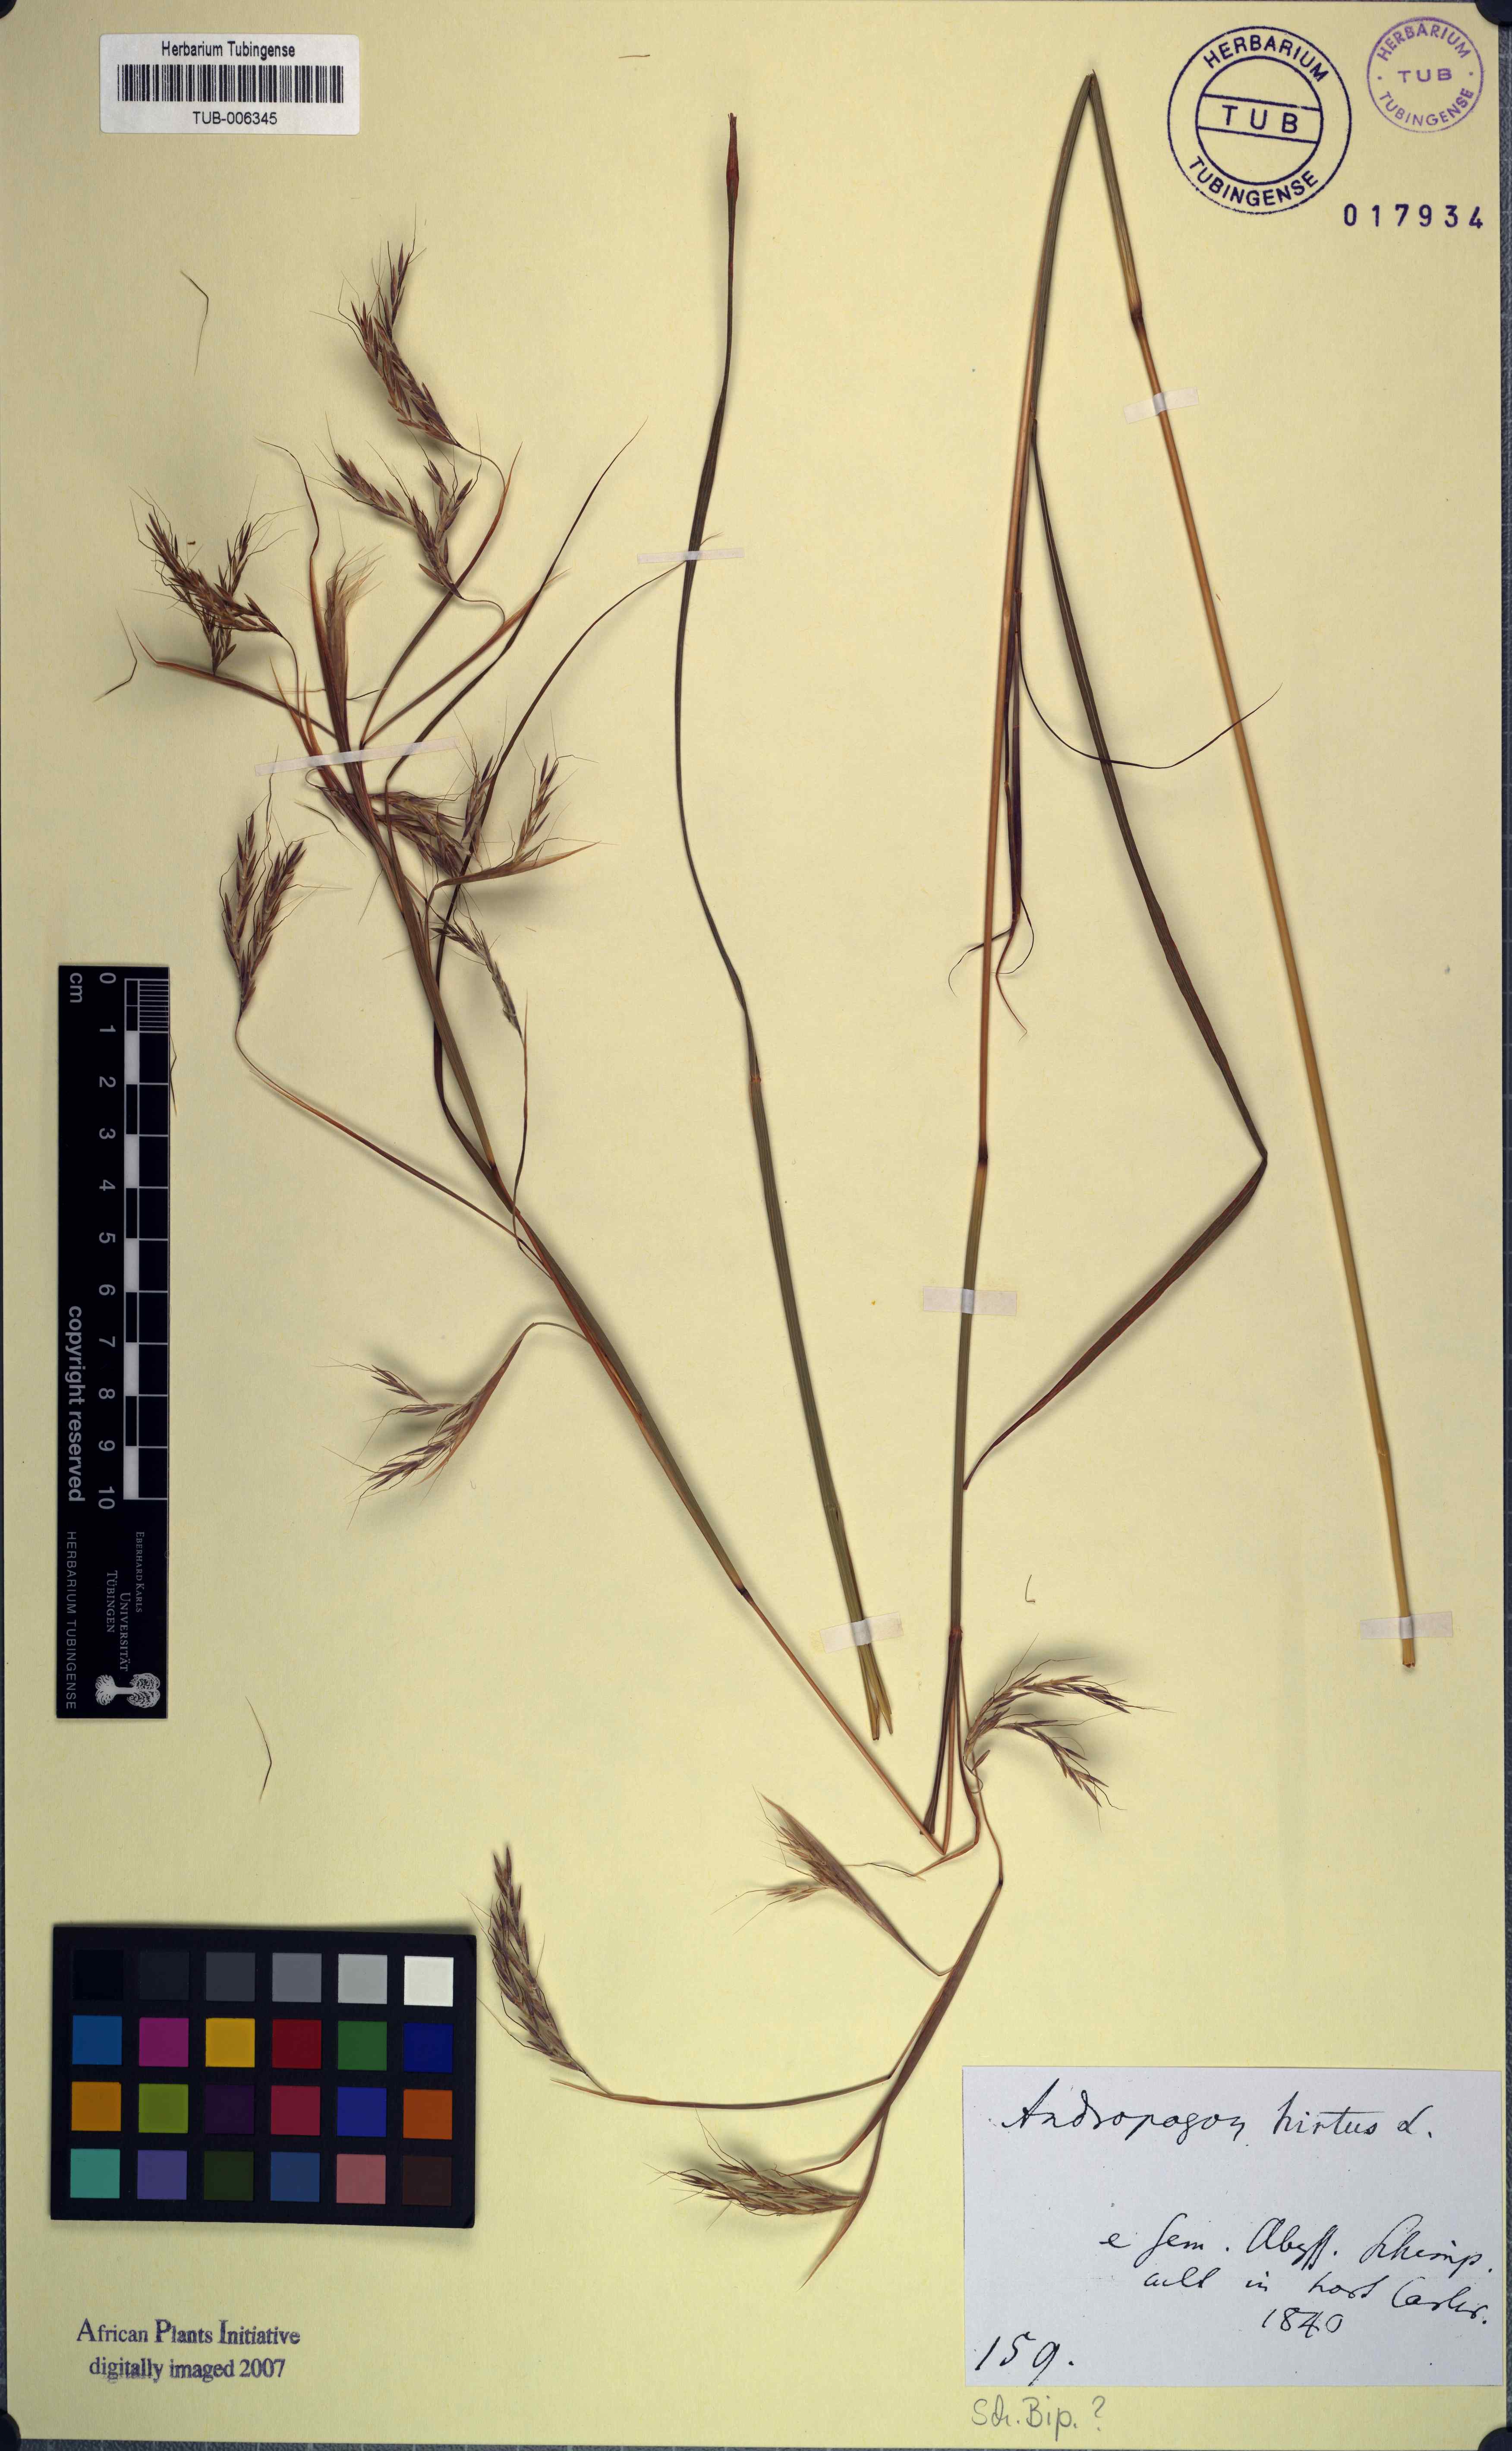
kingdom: Plantae
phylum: Tracheophyta
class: Liliopsida
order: Poales
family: Poaceae
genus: Hyparrhenia
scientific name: Hyparrhenia hirta
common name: Thatching grass
